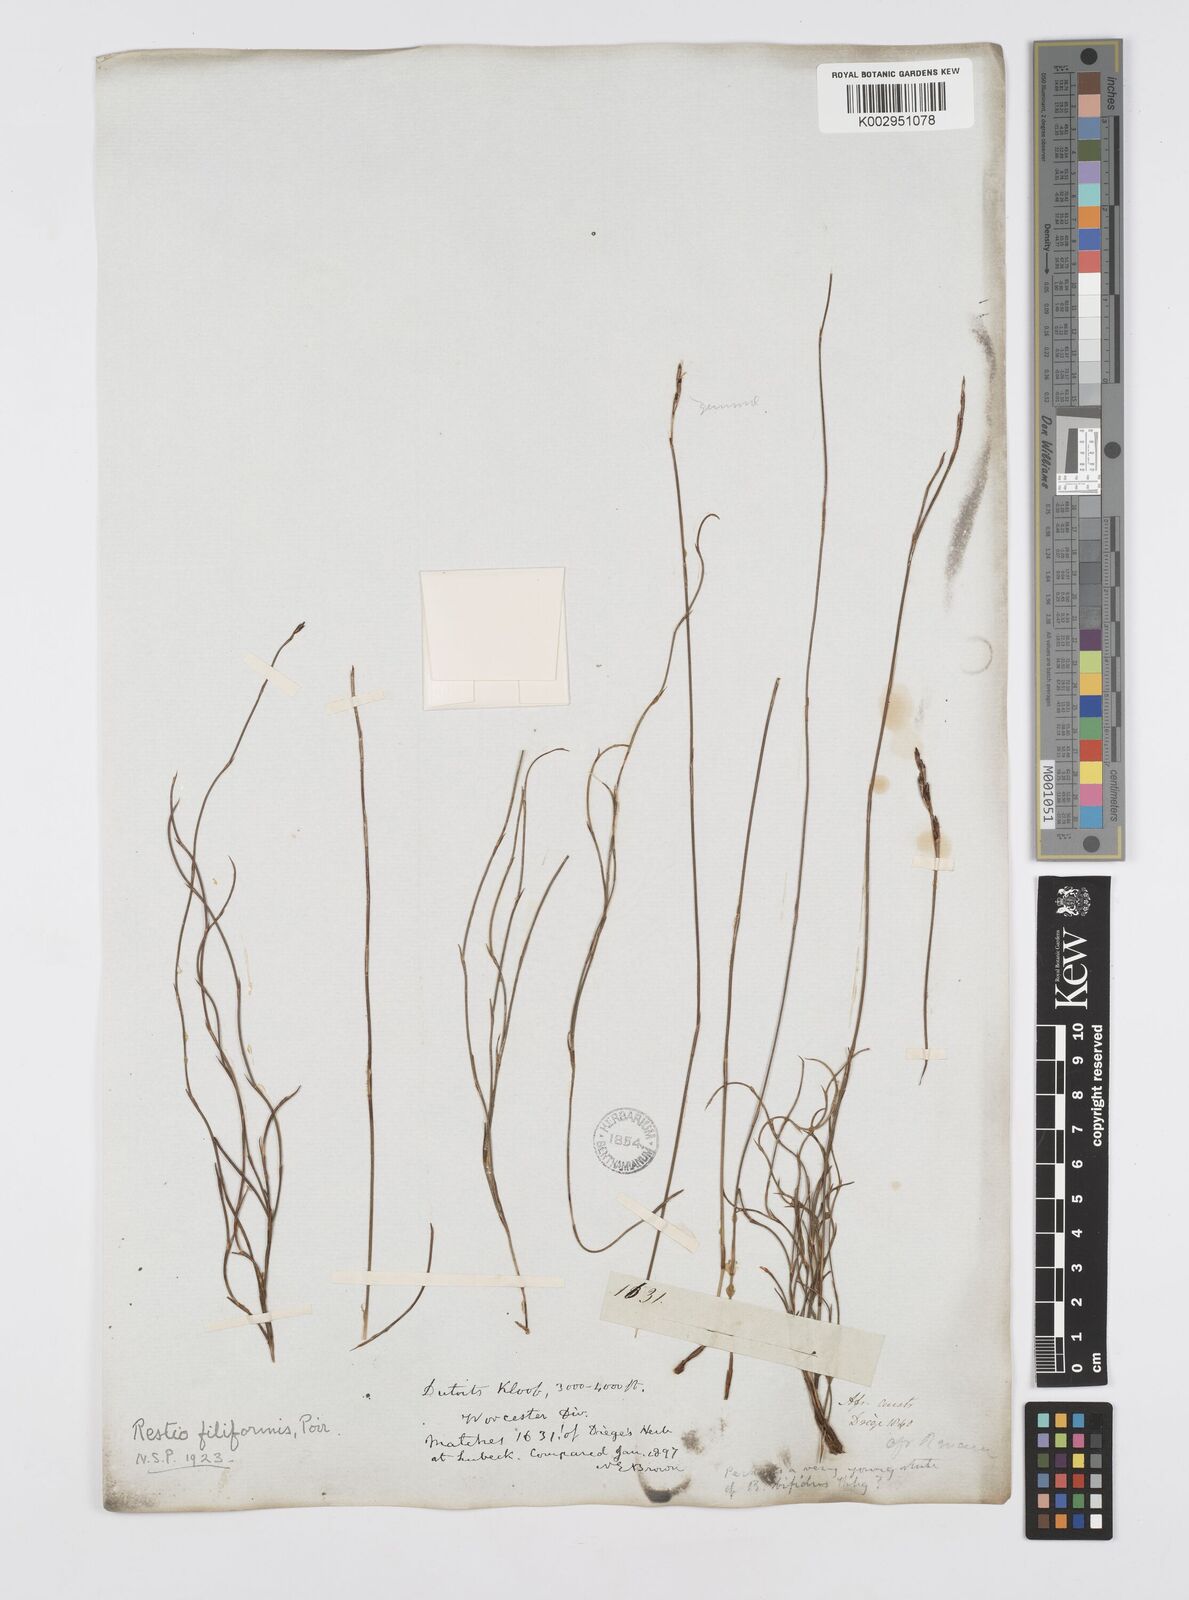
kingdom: Plantae
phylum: Tracheophyta
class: Liliopsida
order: Poales
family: Restionaceae
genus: Restio
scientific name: Restio filiformis
